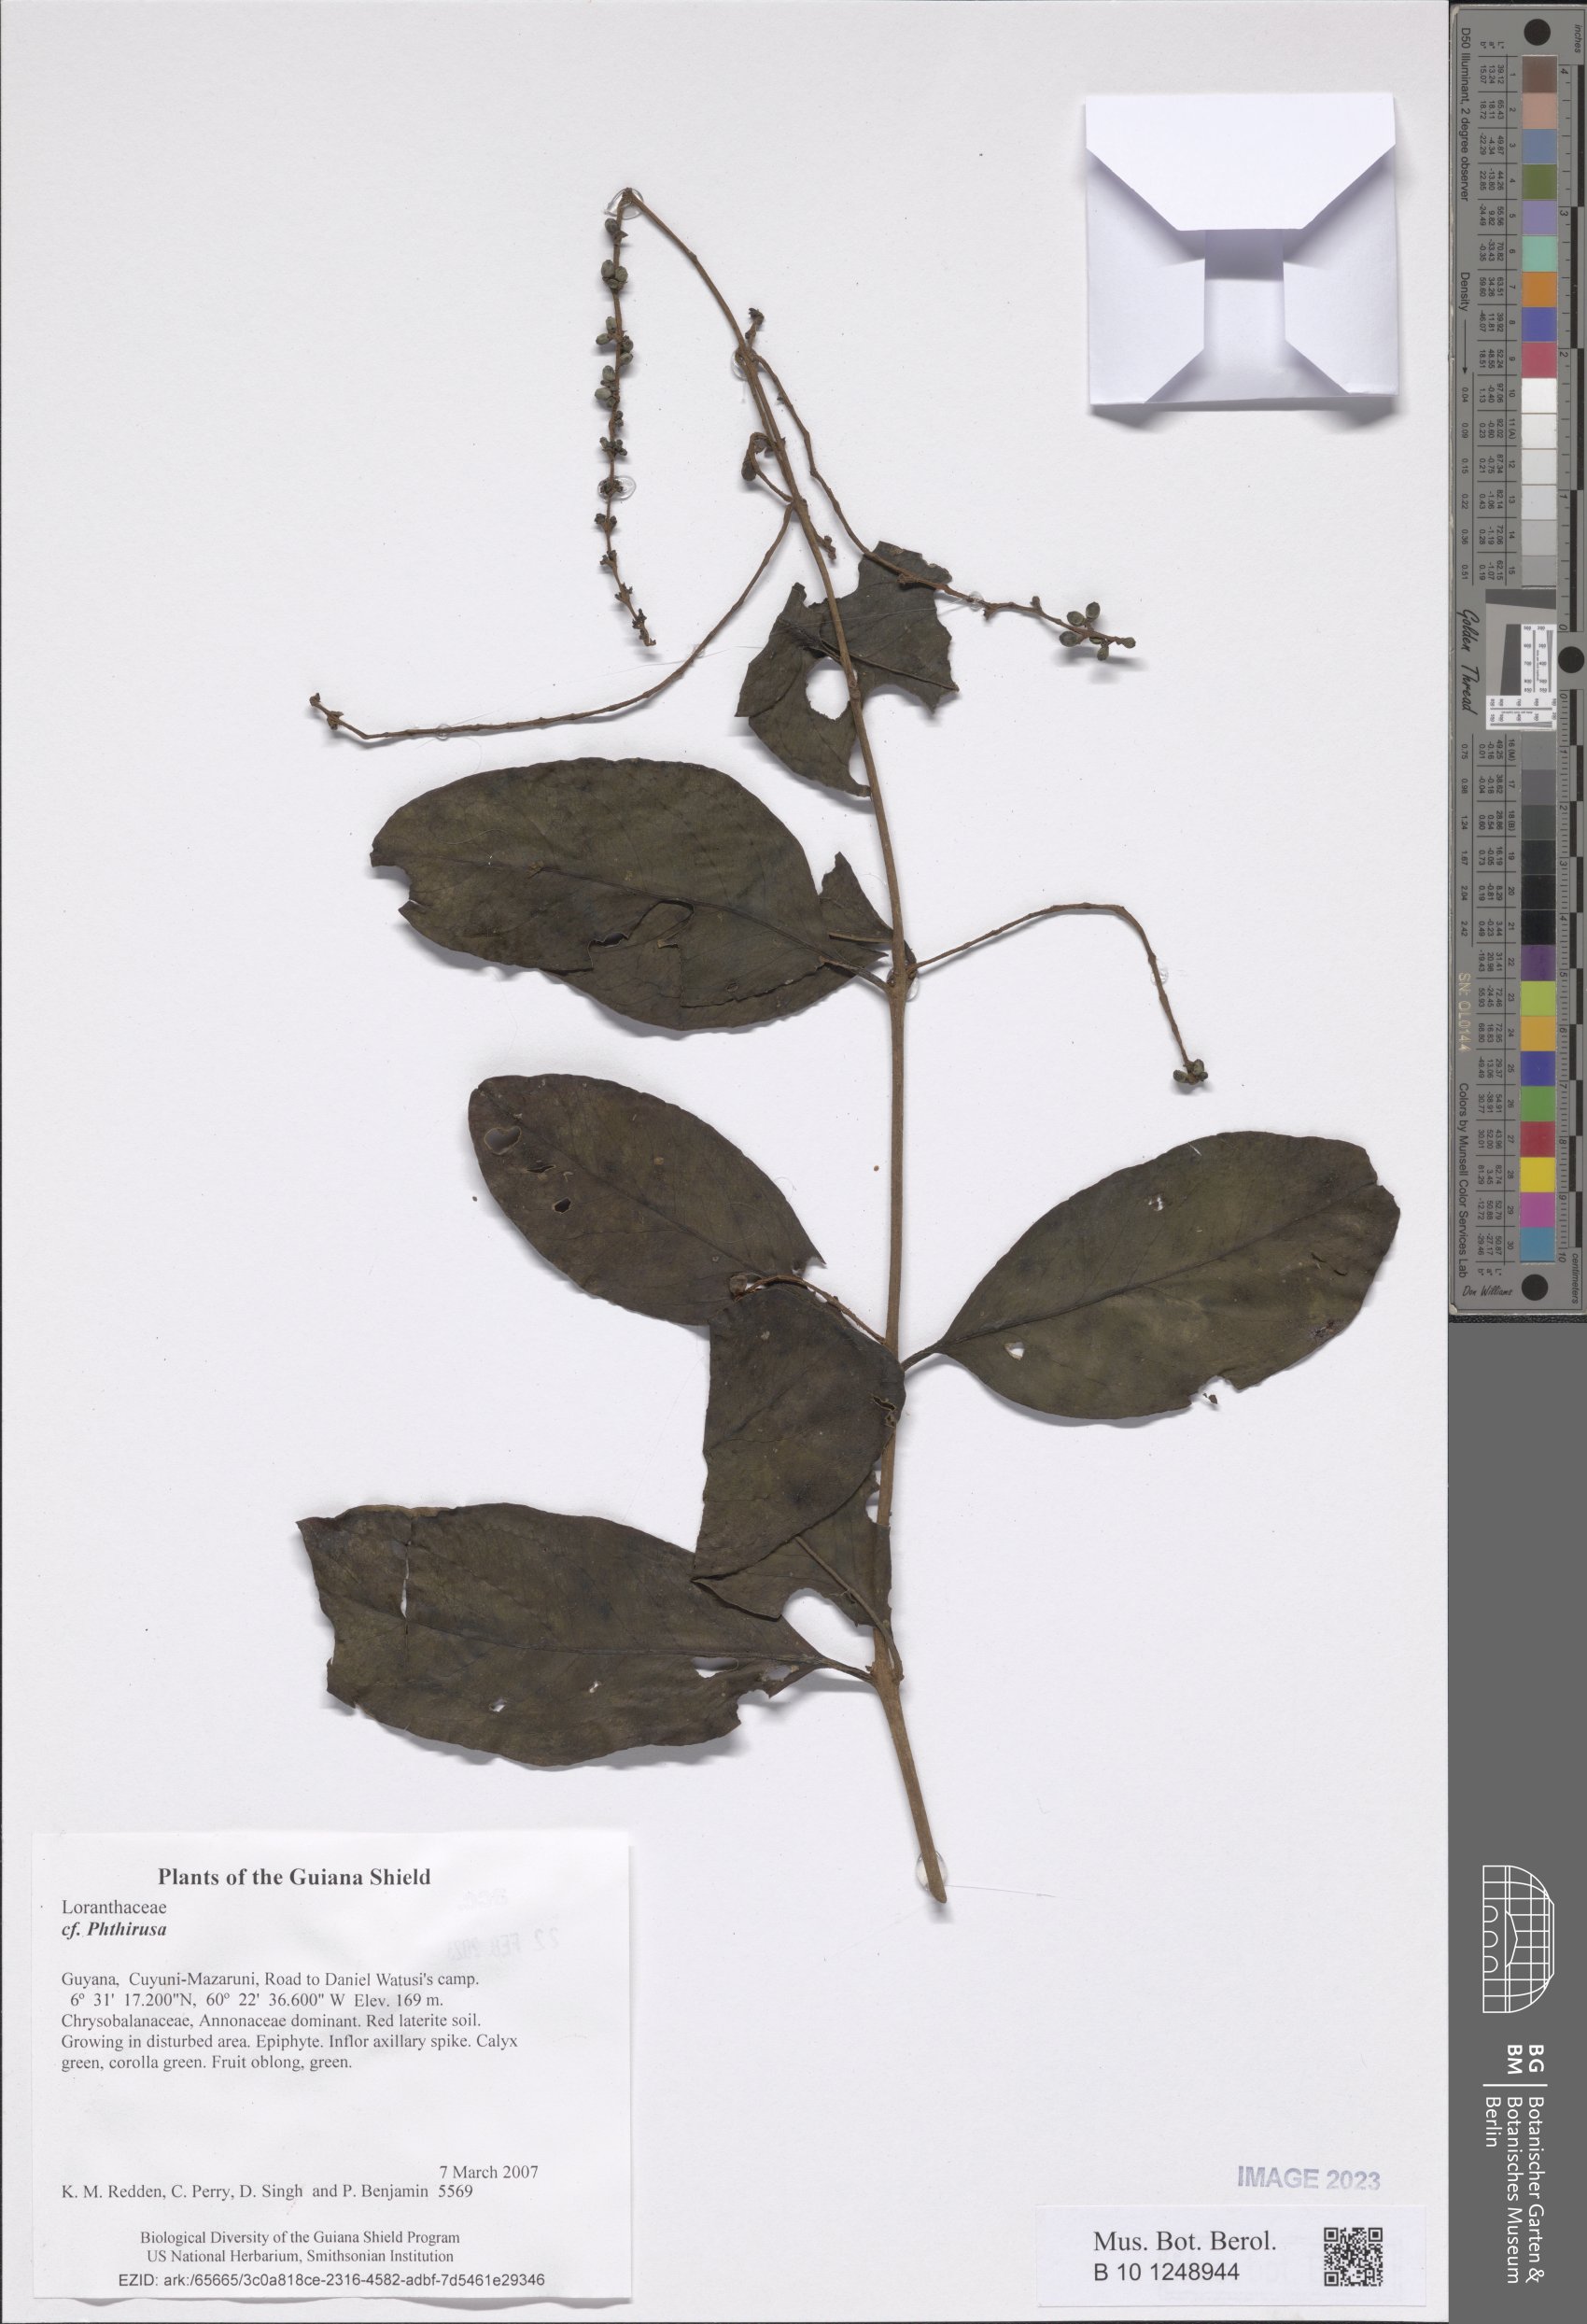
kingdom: Plantae
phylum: Tracheophyta
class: Magnoliopsida
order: Santalales
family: Loranthaceae
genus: Phthirusa
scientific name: Phthirusa
